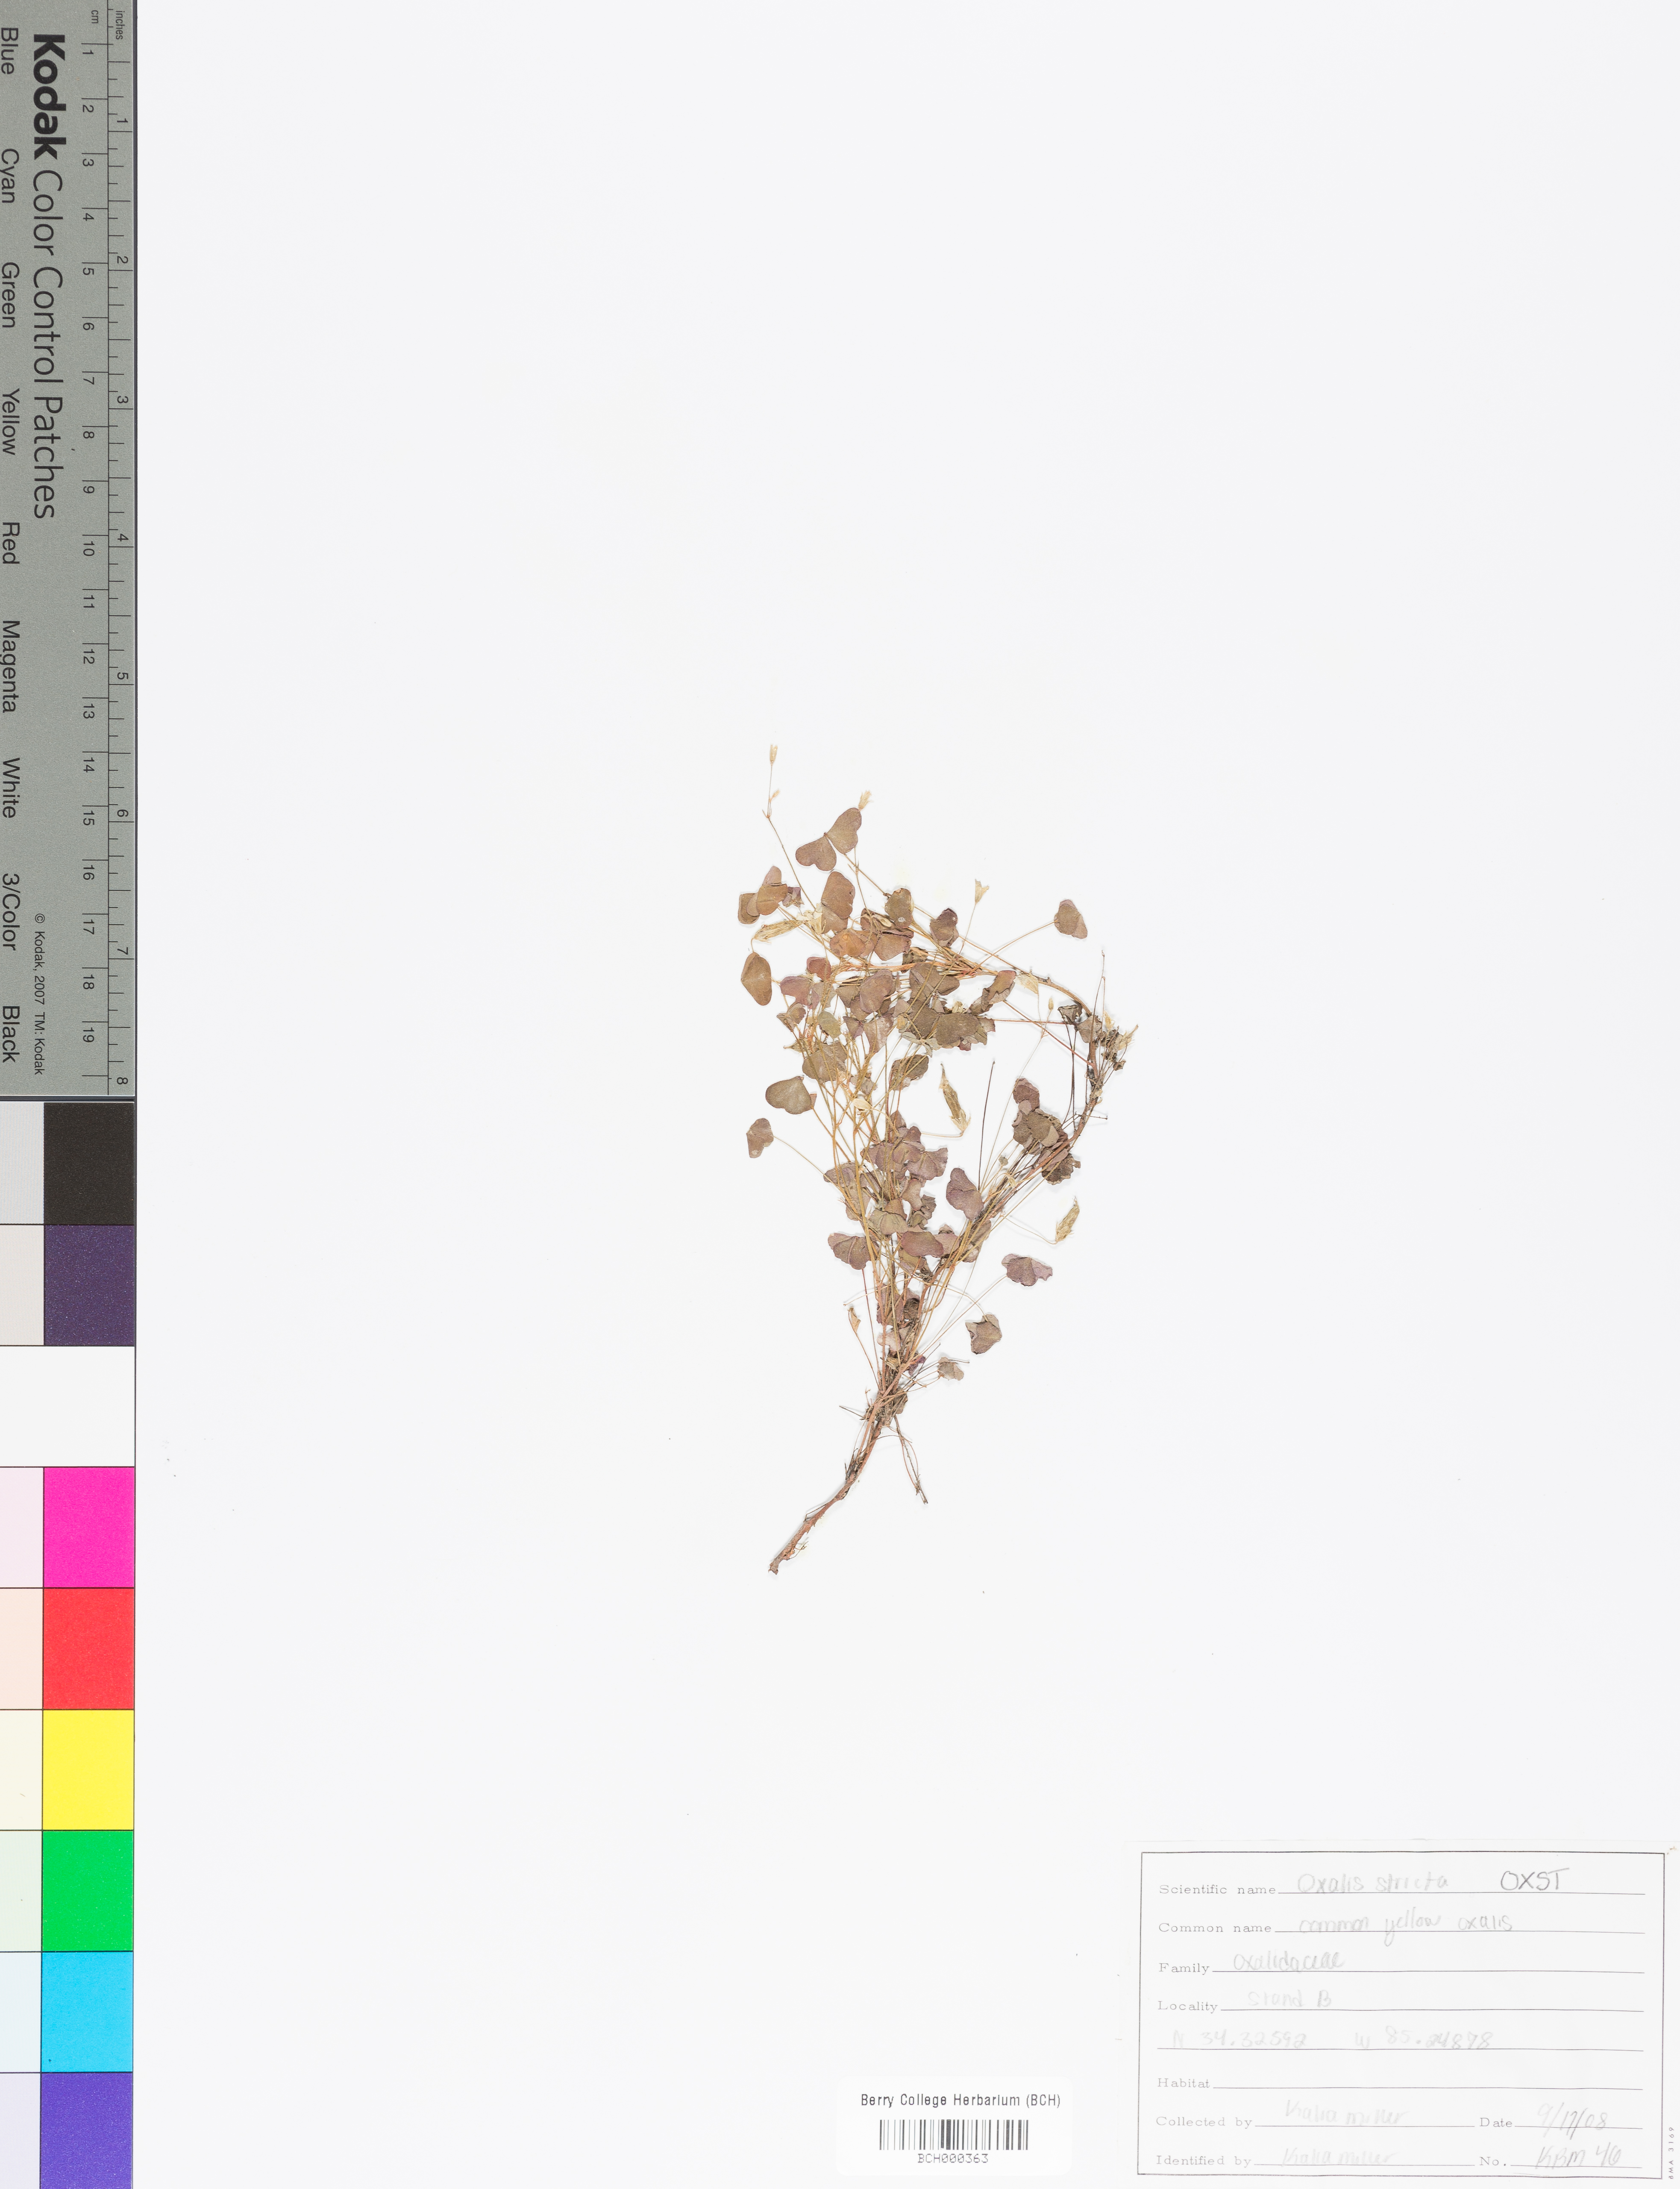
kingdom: Plantae
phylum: Tracheophyta
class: Magnoliopsida
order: Oxalidales
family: Oxalidaceae
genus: Oxalis
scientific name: Oxalis stricta
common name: Upright yellow-sorrel
